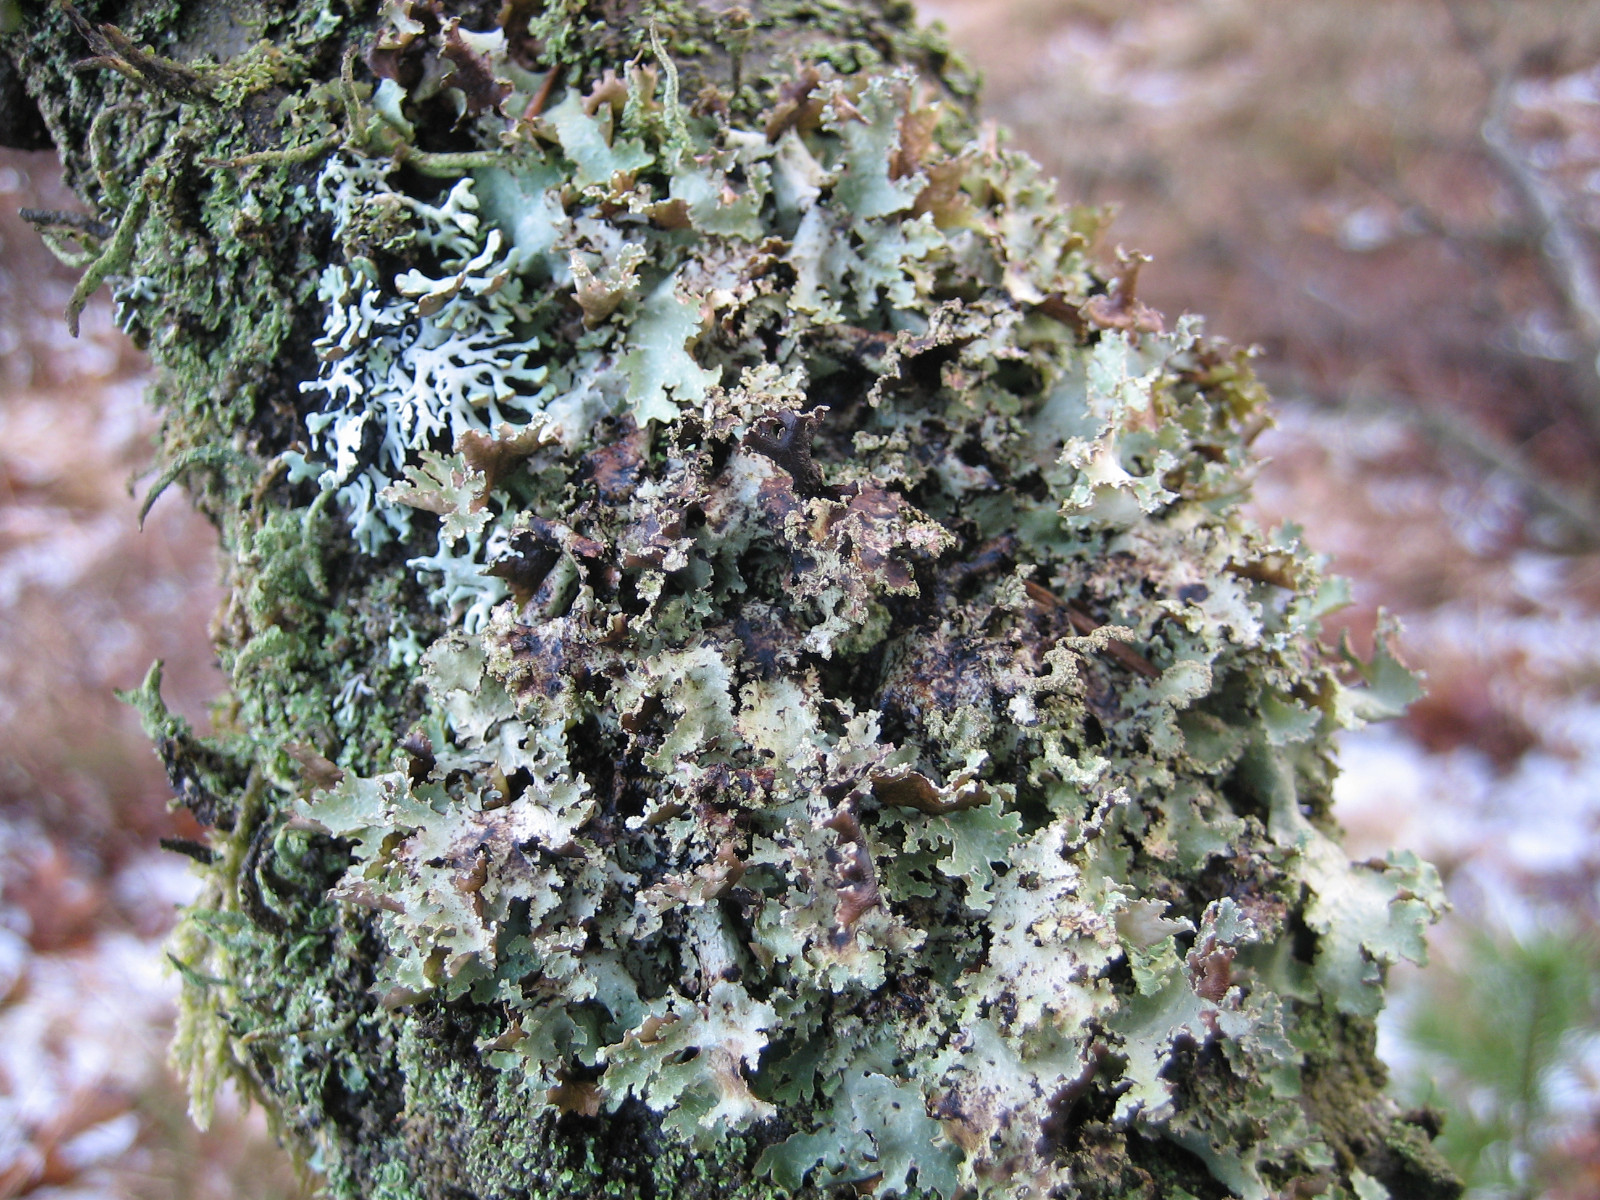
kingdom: Fungi
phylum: Ascomycota
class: Lecanoromycetes
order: Lecanorales
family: Parmeliaceae
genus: Platismatia
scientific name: Platismatia glauca
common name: blågrå papirlav
